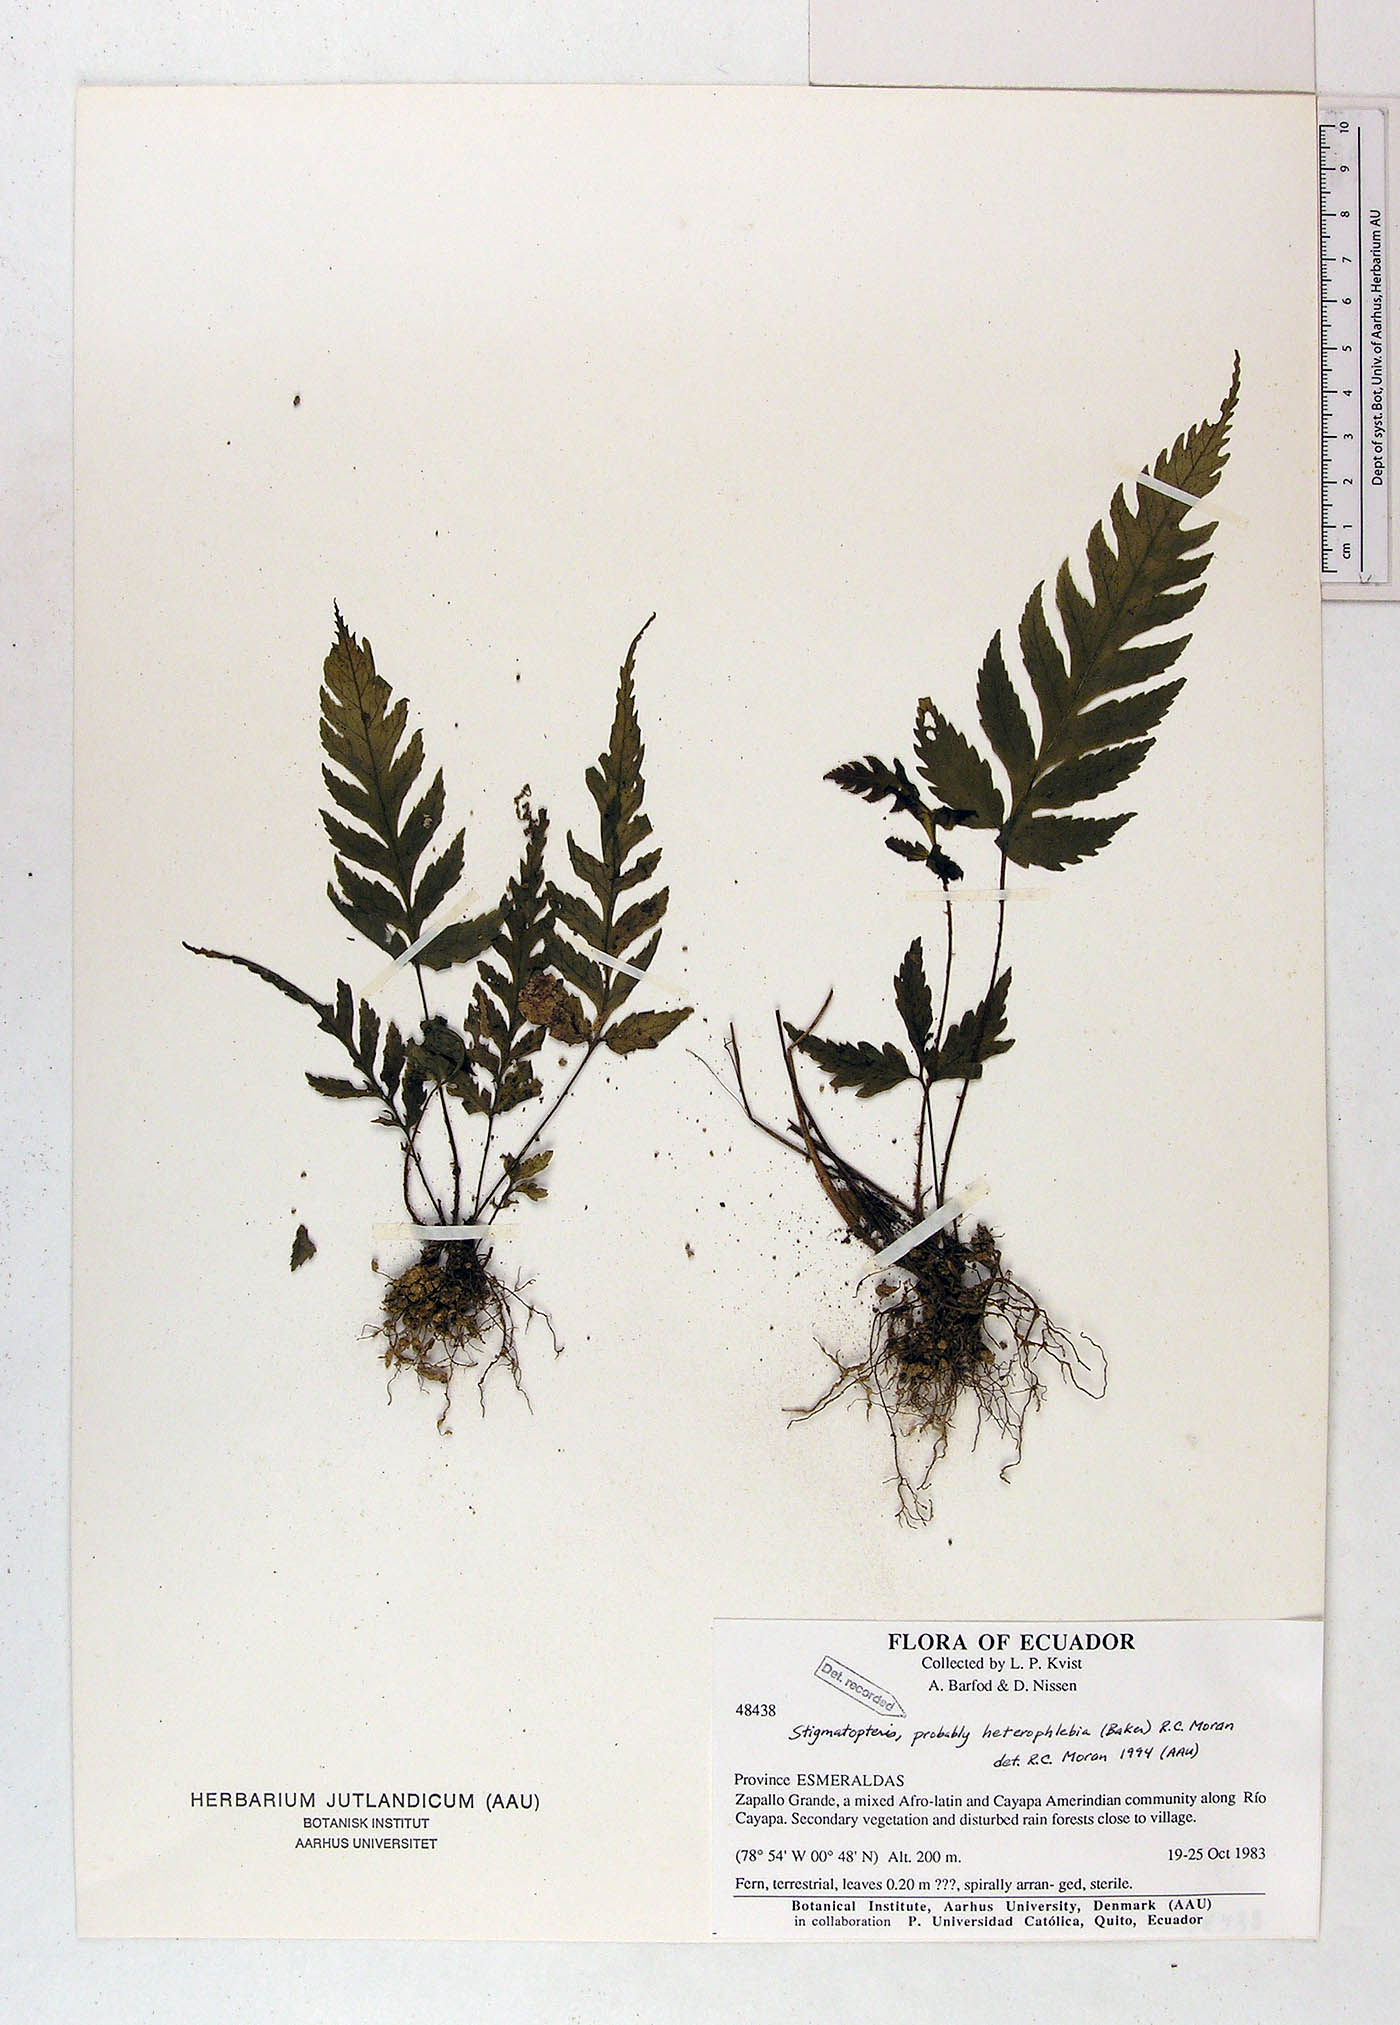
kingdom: Plantae
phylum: Tracheophyta
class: Polypodiopsida
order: Polypodiales
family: Dryopteridaceae
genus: Stigmatopteris
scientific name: Stigmatopteris heterophlebia
